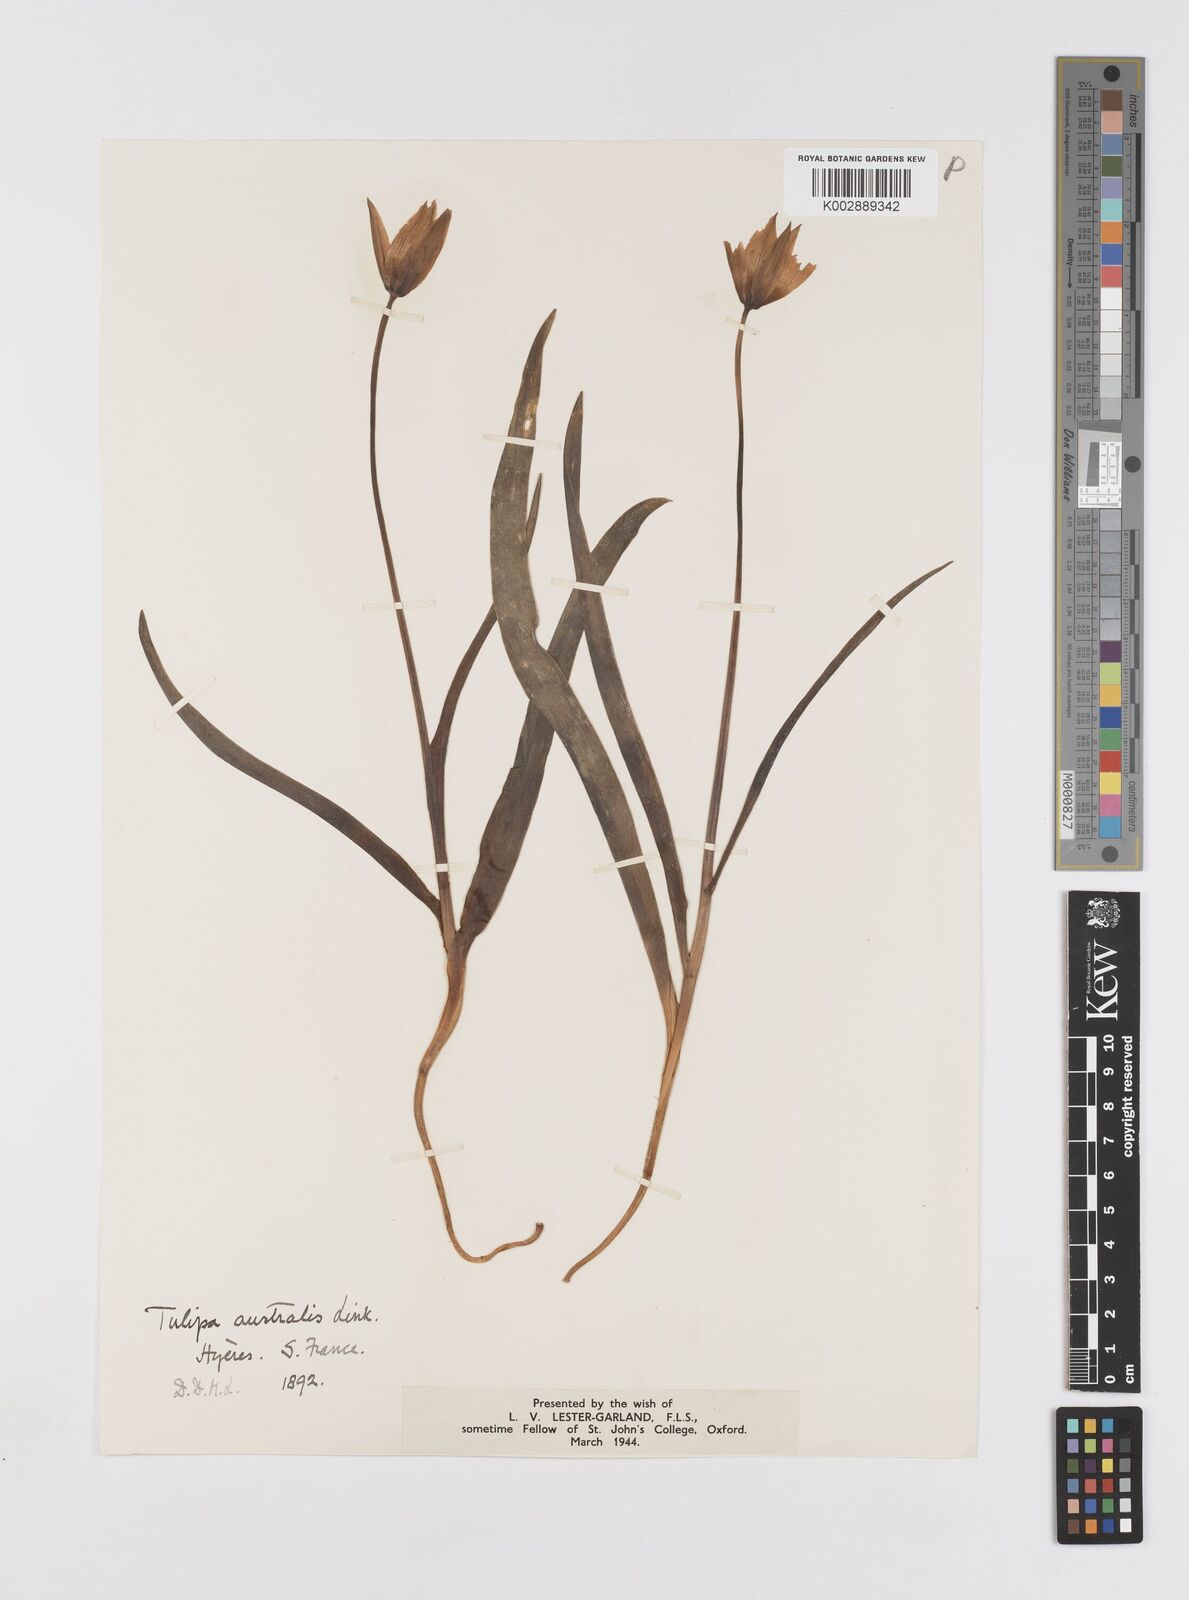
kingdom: Plantae
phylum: Tracheophyta
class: Liliopsida
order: Liliales
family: Liliaceae
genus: Tulipa
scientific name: Tulipa sylvestris
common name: Wild tulip
